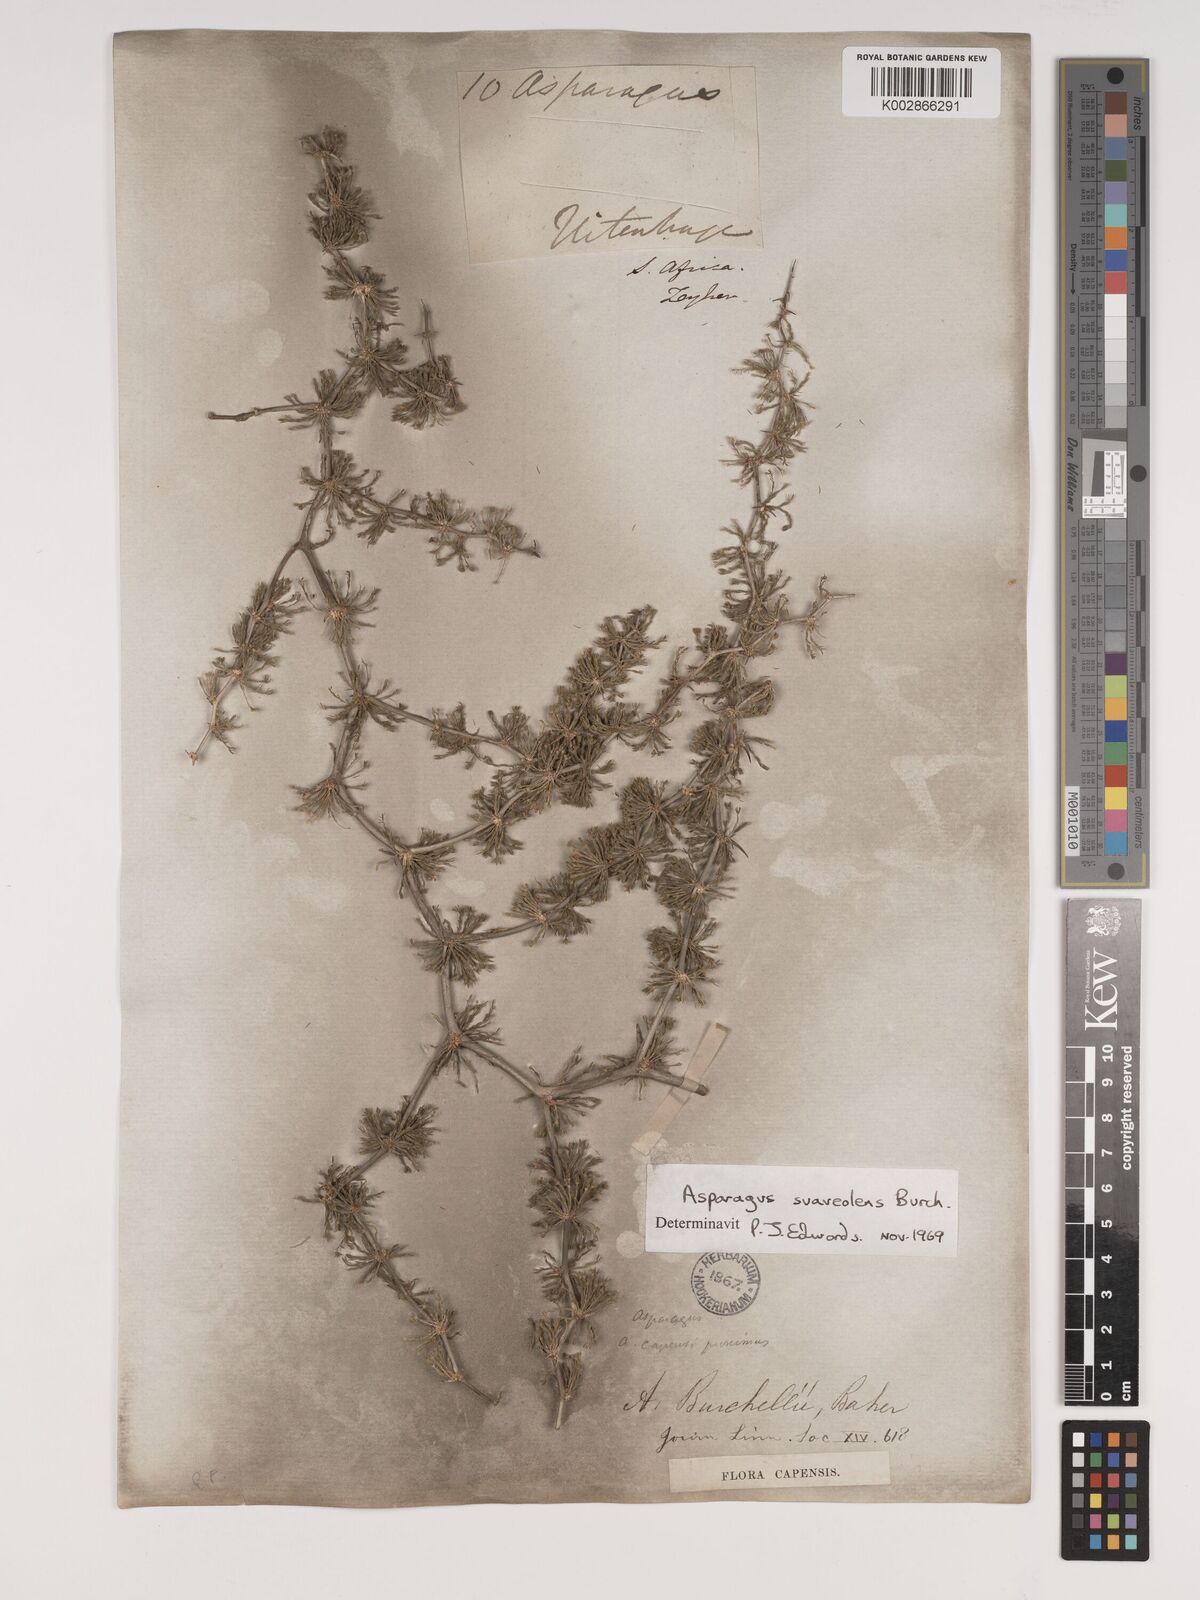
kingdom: Plantae
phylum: Tracheophyta
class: Liliopsida
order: Asparagales
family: Asparagaceae
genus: Asparagus
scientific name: Asparagus suaveolens
